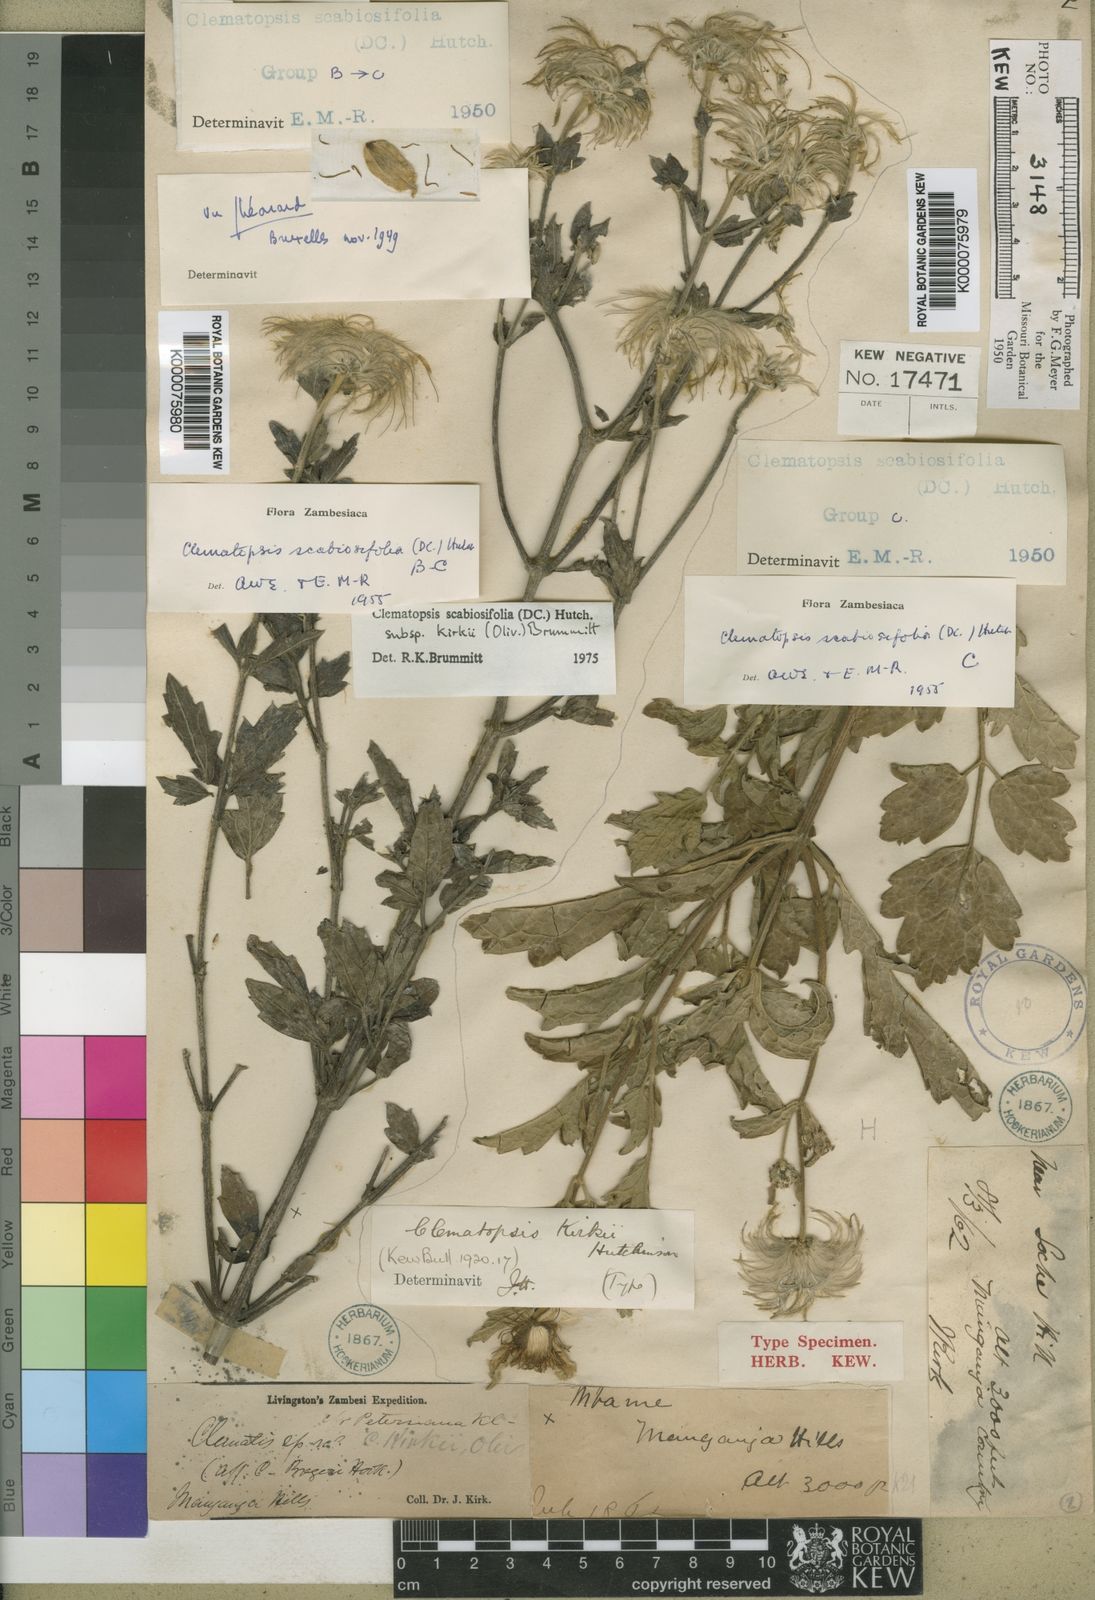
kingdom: Plantae
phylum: Tracheophyta
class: Magnoliopsida
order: Ranunculales
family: Ranunculaceae
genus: Clematis
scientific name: Clematis villosa
